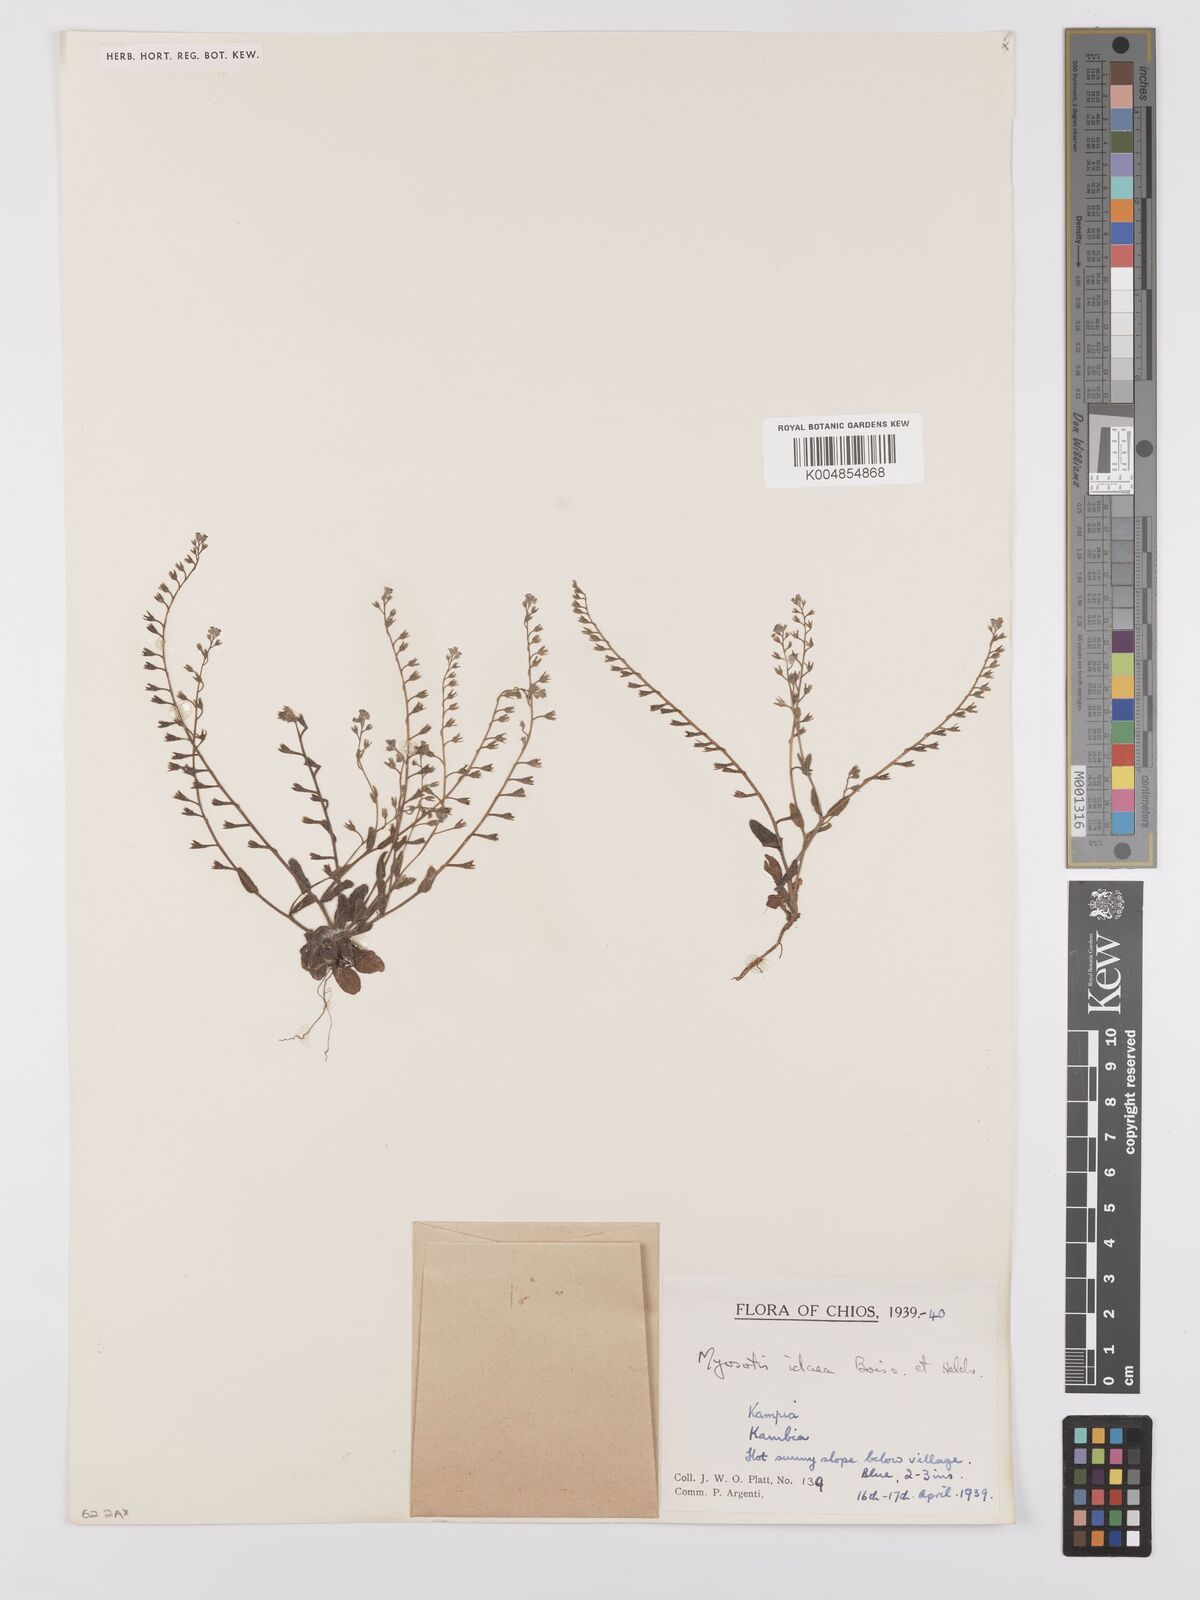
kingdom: Plantae
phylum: Tracheophyta
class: Magnoliopsida
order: Boraginales
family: Boraginaceae
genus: Myosotis
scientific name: Myosotis
